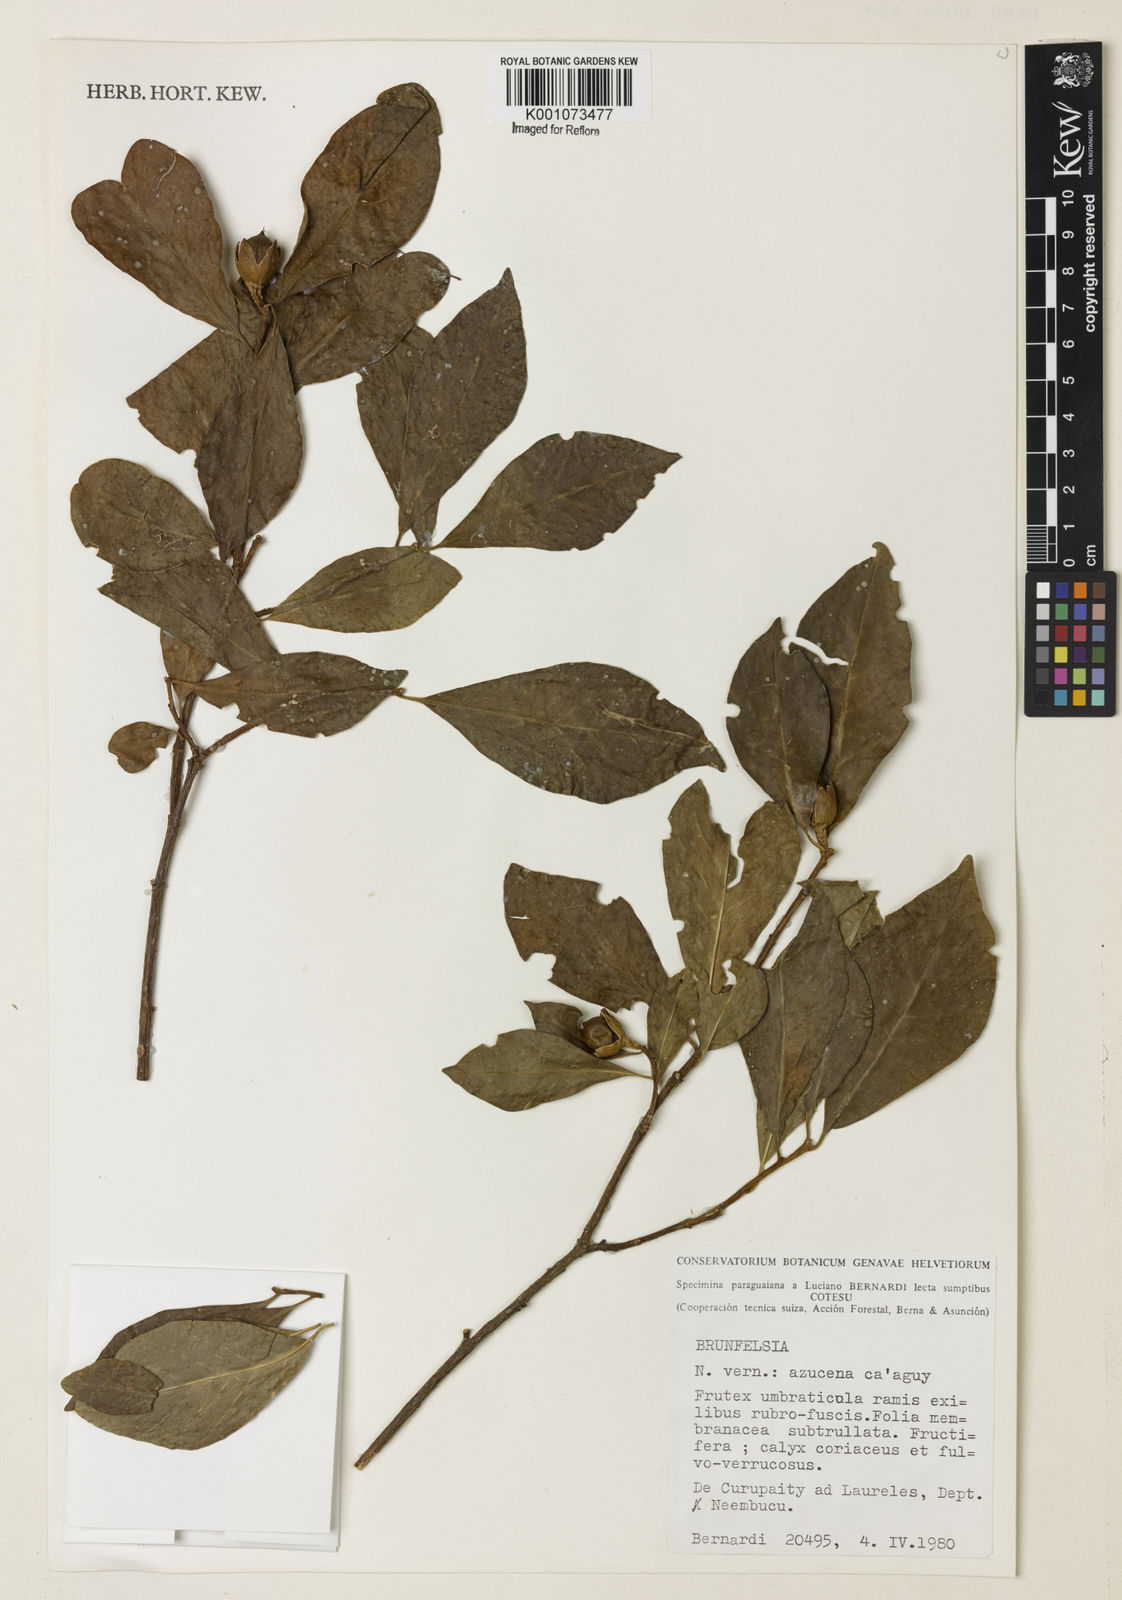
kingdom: Plantae
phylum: Tracheophyta
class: Magnoliopsida
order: Solanales
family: Solanaceae
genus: Brunfelsia
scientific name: Brunfelsia australis
